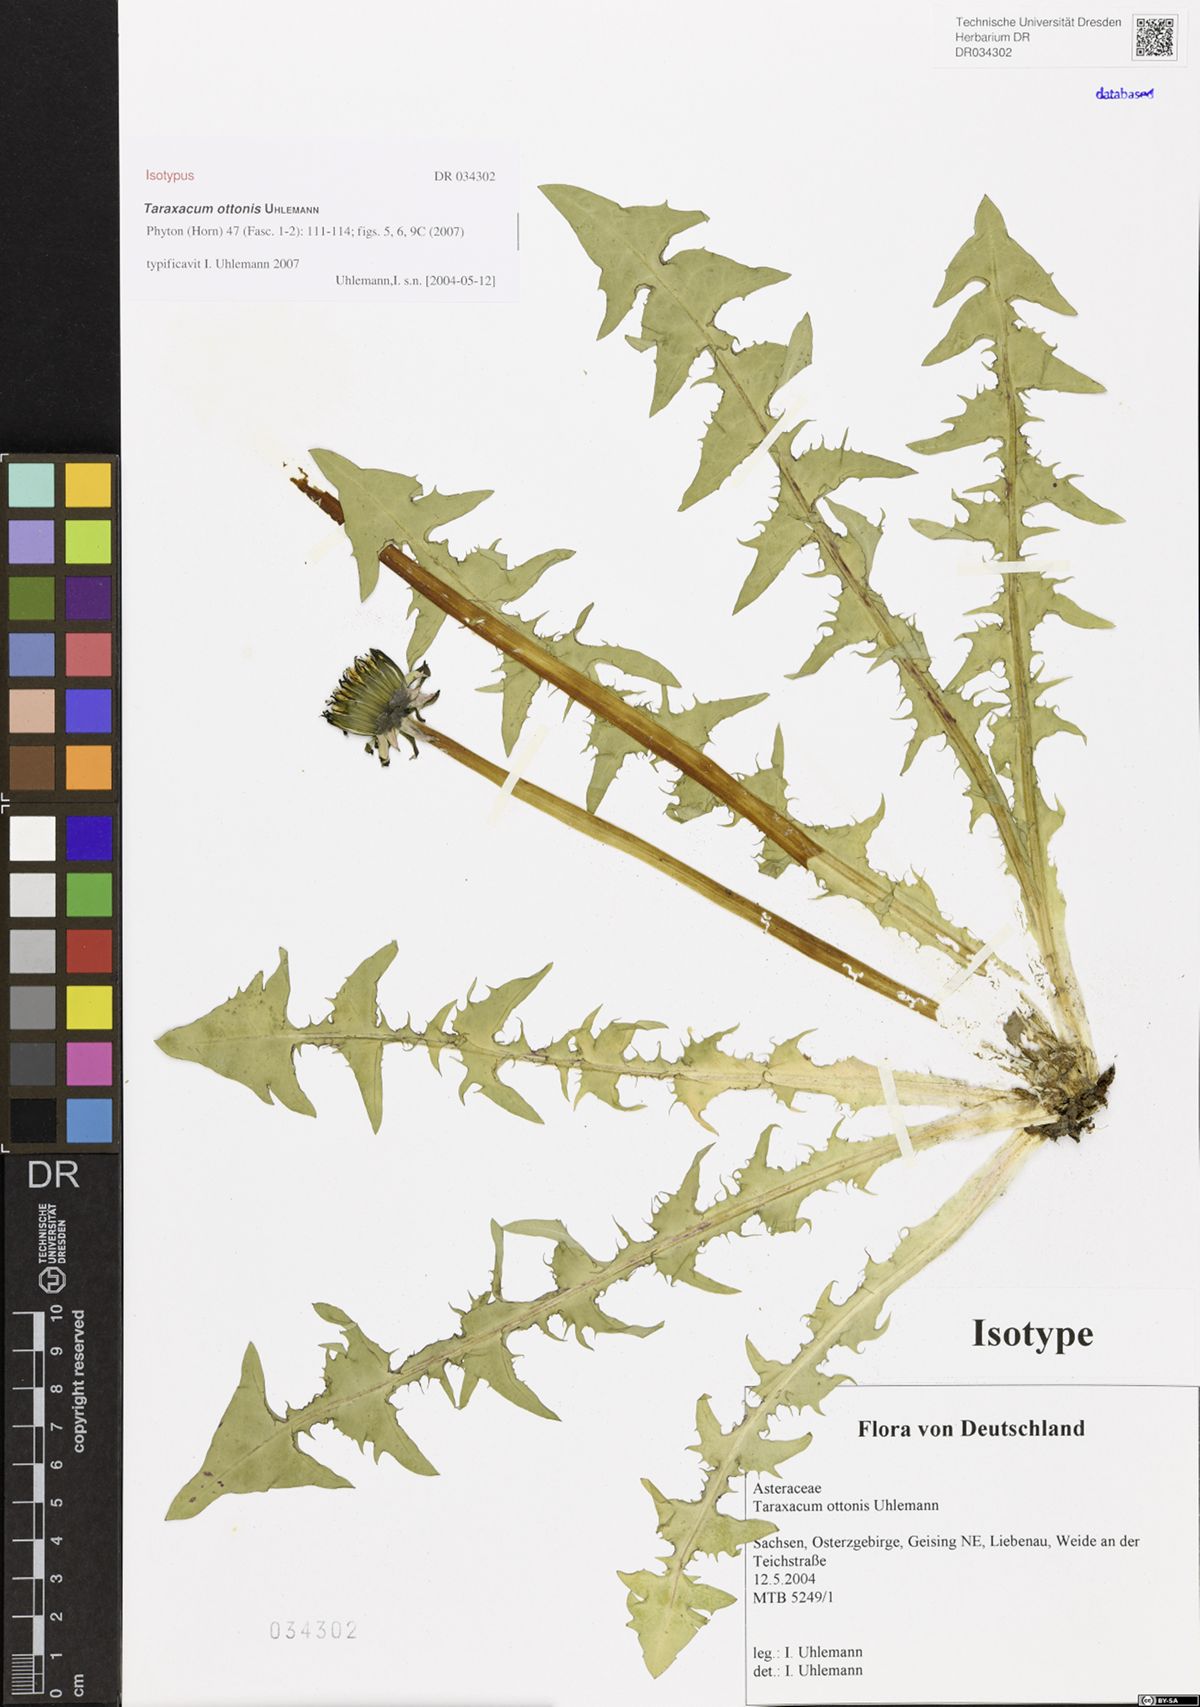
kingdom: Plantae
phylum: Tracheophyta
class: Magnoliopsida
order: Asterales
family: Asteraceae
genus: Taraxacum
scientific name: Taraxacum ottonis
